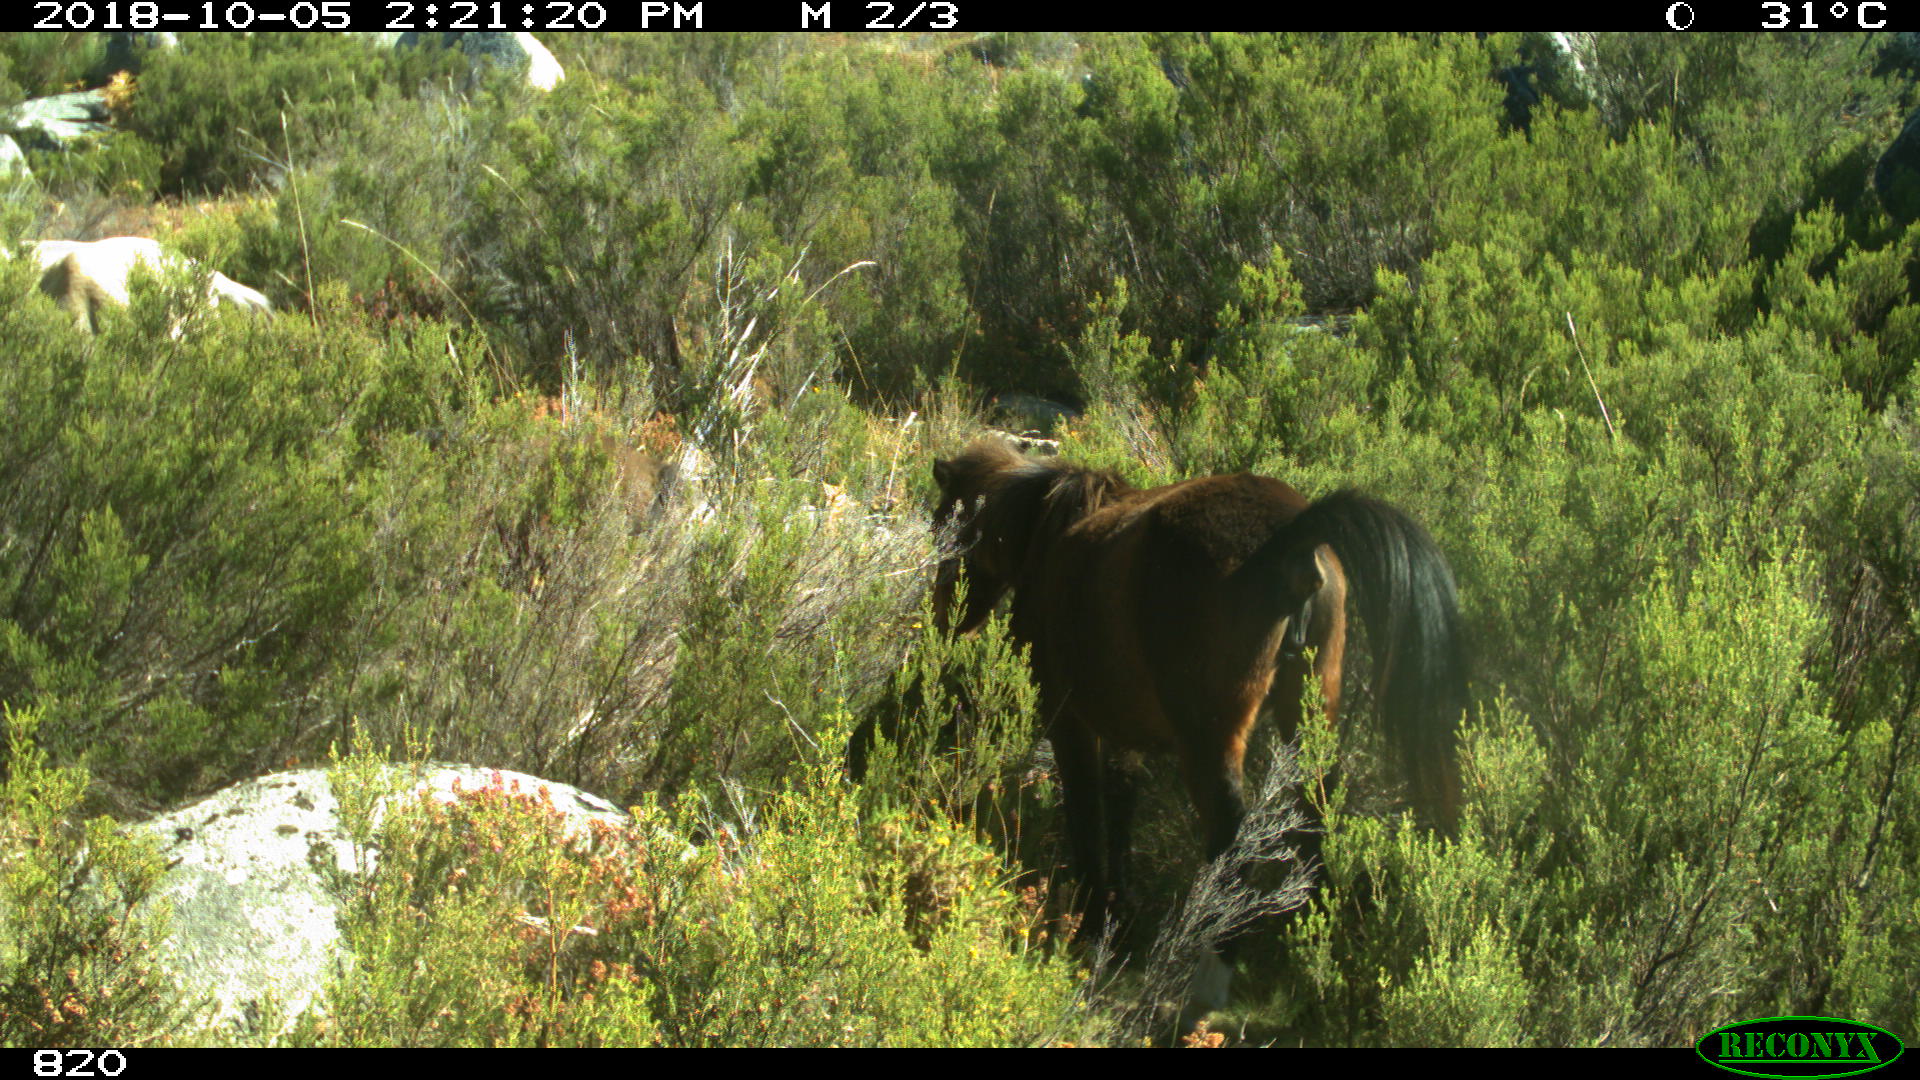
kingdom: Animalia
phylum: Chordata
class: Mammalia
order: Perissodactyla
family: Equidae
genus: Equus
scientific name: Equus caballus
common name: Horse
